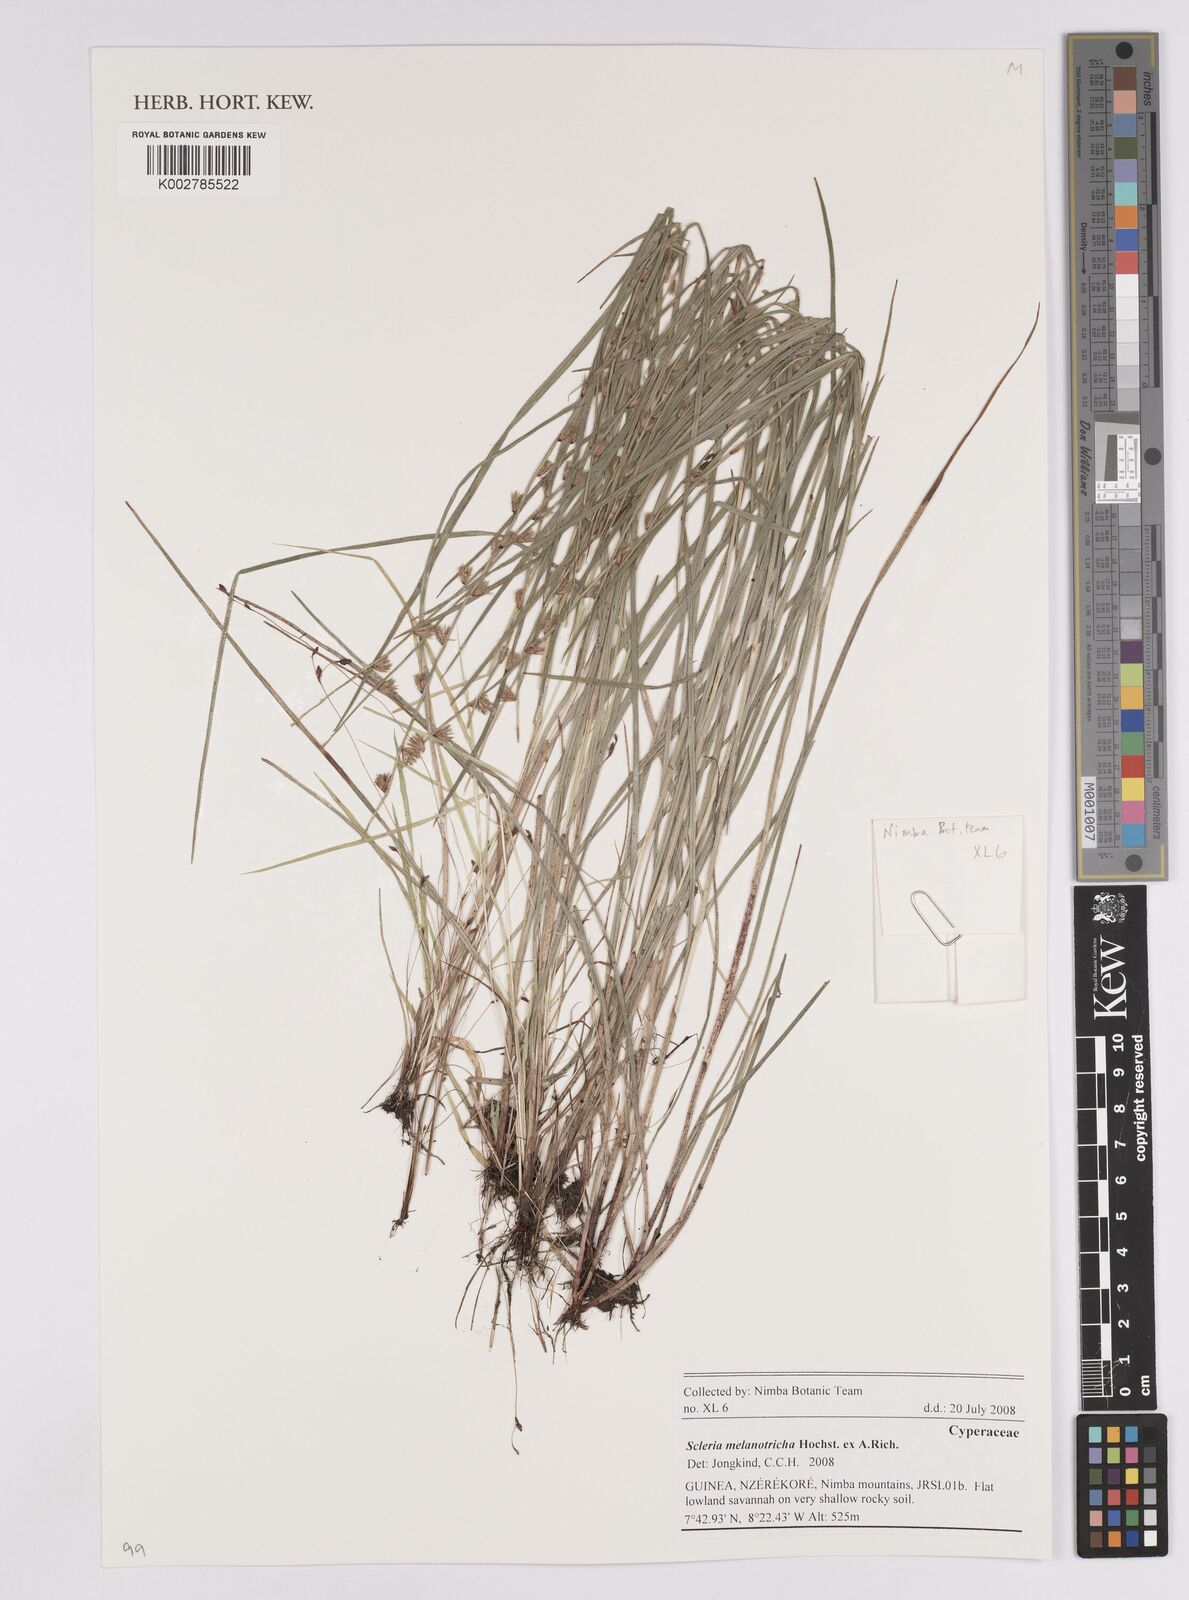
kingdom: Plantae
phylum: Tracheophyta
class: Liliopsida
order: Poales
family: Cyperaceae
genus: Scleria
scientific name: Scleria melanotricha
